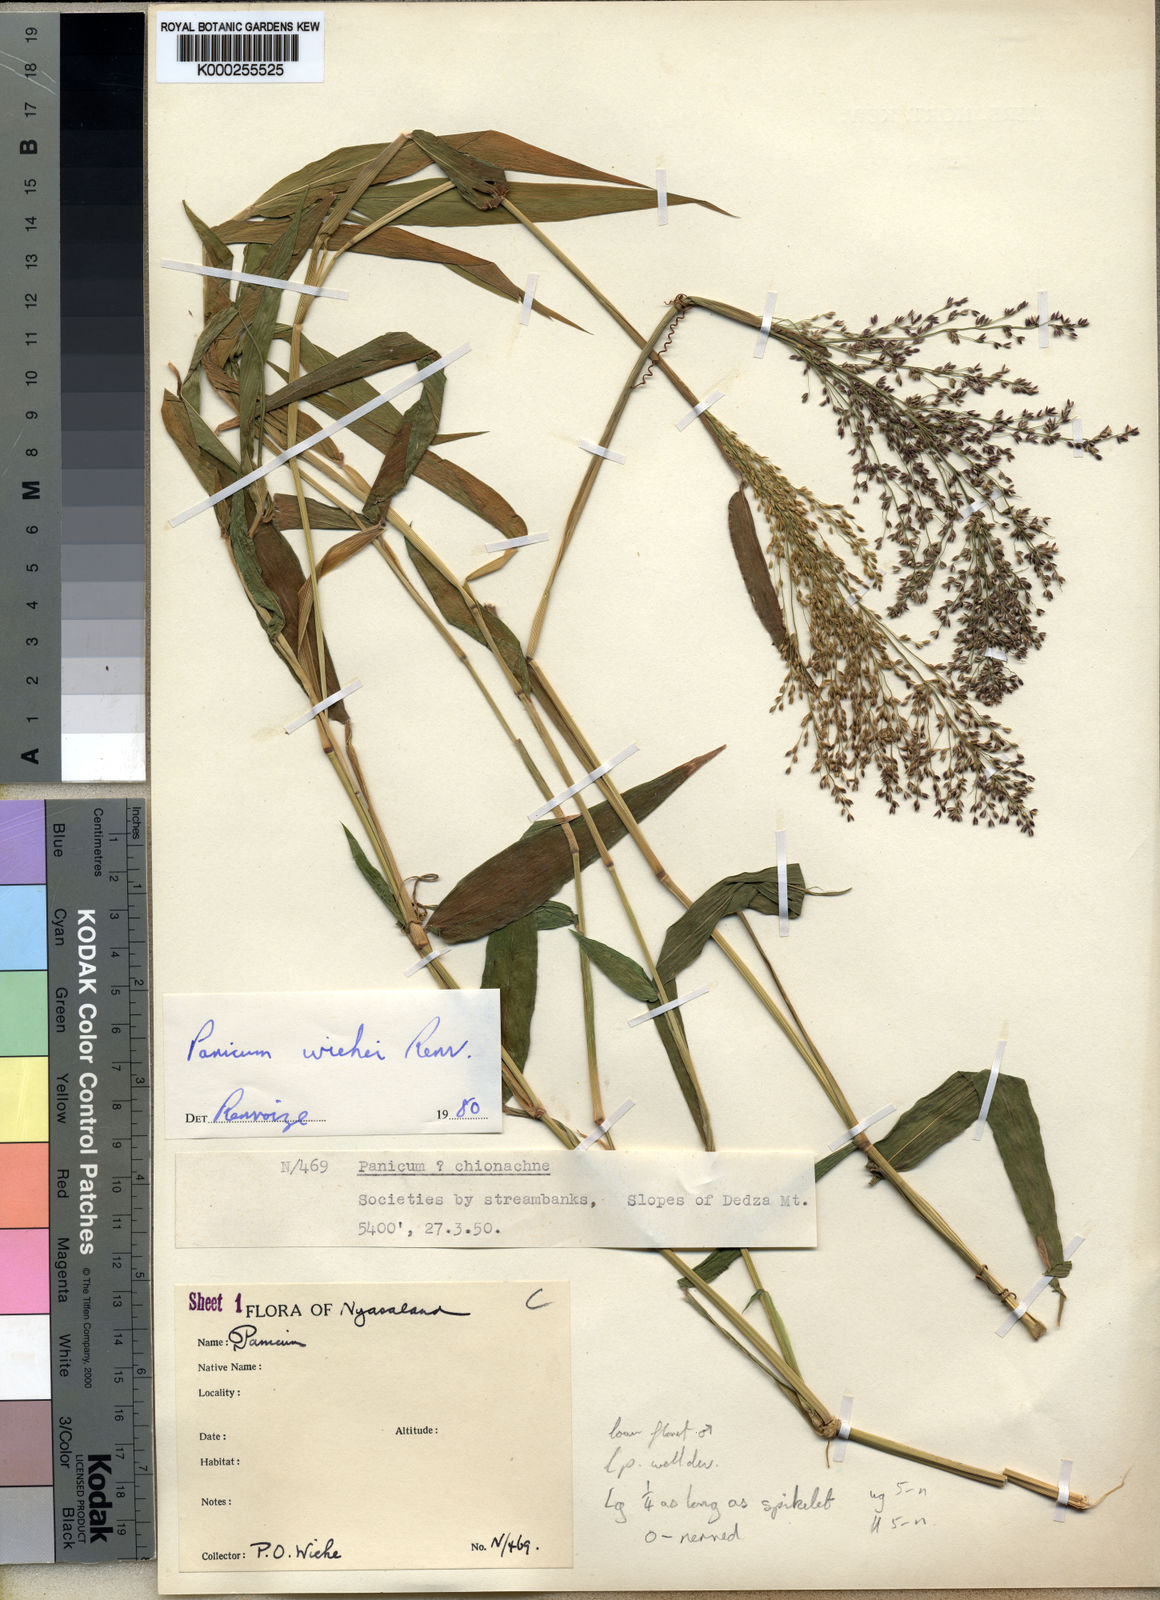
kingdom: Plantae
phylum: Tracheophyta
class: Liliopsida
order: Poales
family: Poaceae
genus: Panicum
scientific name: Panicum wiehei
